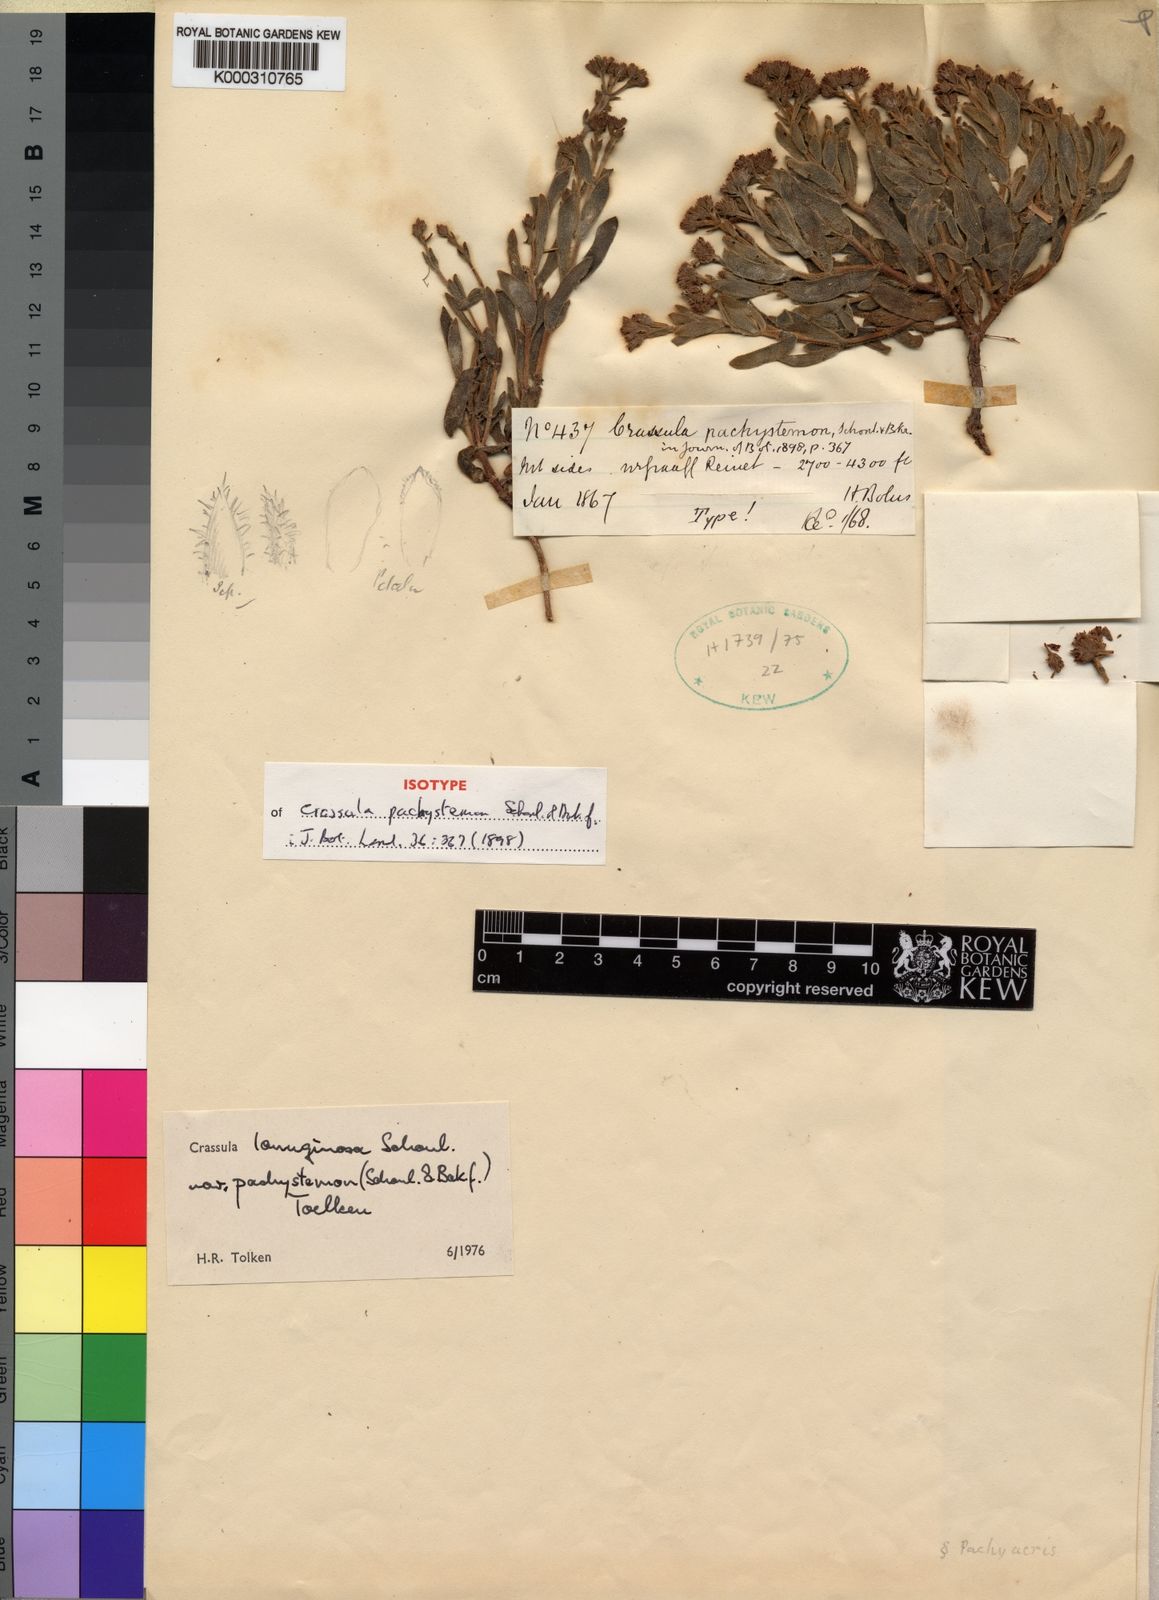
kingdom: Plantae
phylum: Tracheophyta
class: Magnoliopsida
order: Saxifragales
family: Crassulaceae
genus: Crassula
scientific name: Crassula lanuginosa
